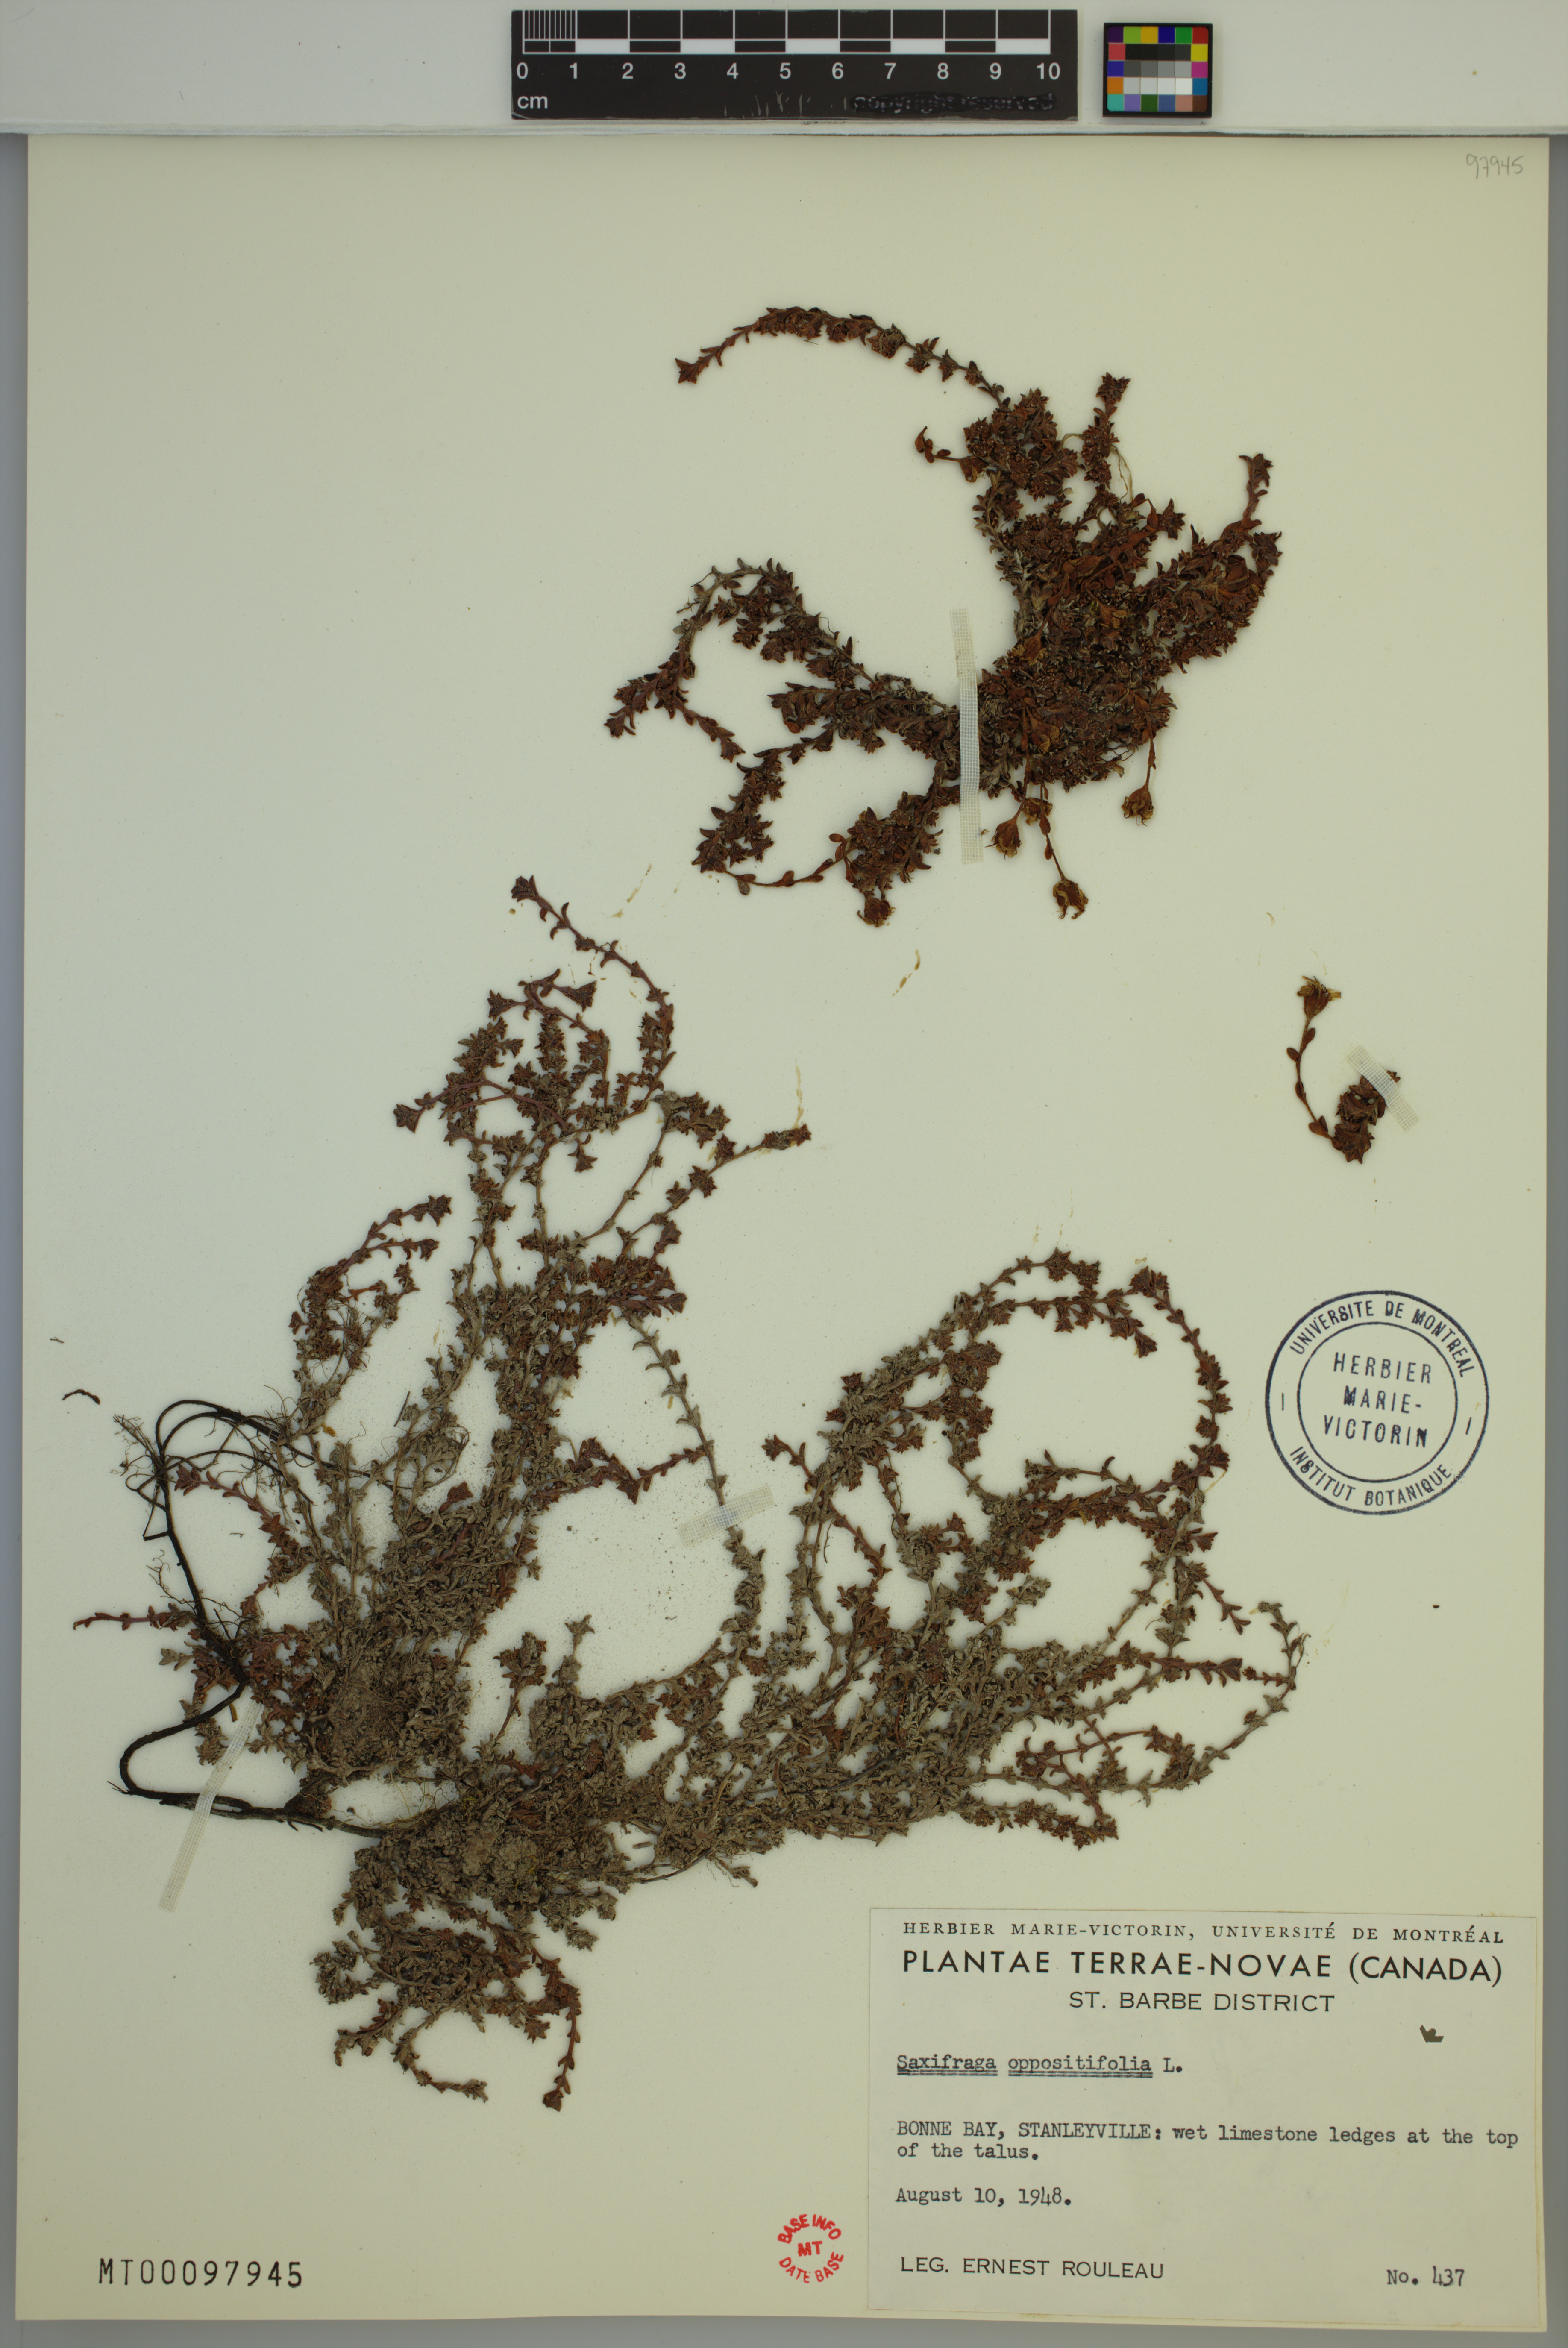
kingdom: Plantae
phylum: Tracheophyta
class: Magnoliopsida
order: Saxifragales
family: Saxifragaceae
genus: Saxifraga
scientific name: Saxifraga oppositifolia
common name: Purple saxifrage
